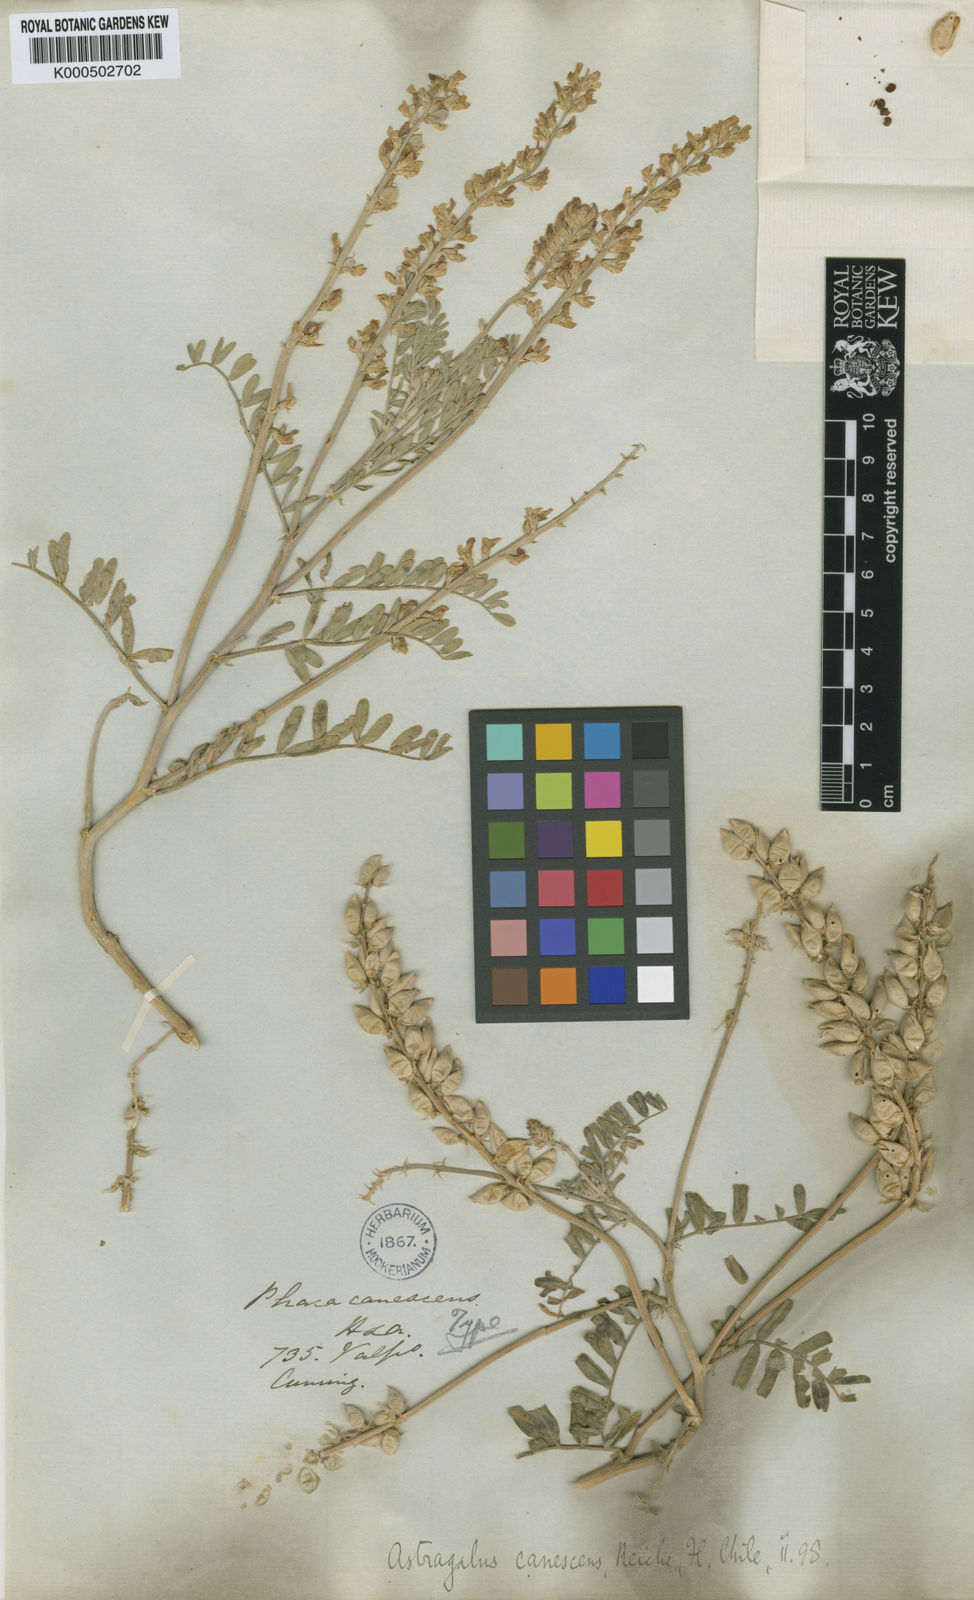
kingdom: Plantae
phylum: Tracheophyta
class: Magnoliopsida
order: Fabales
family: Fabaceae
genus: Astragalus
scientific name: Astragalus
